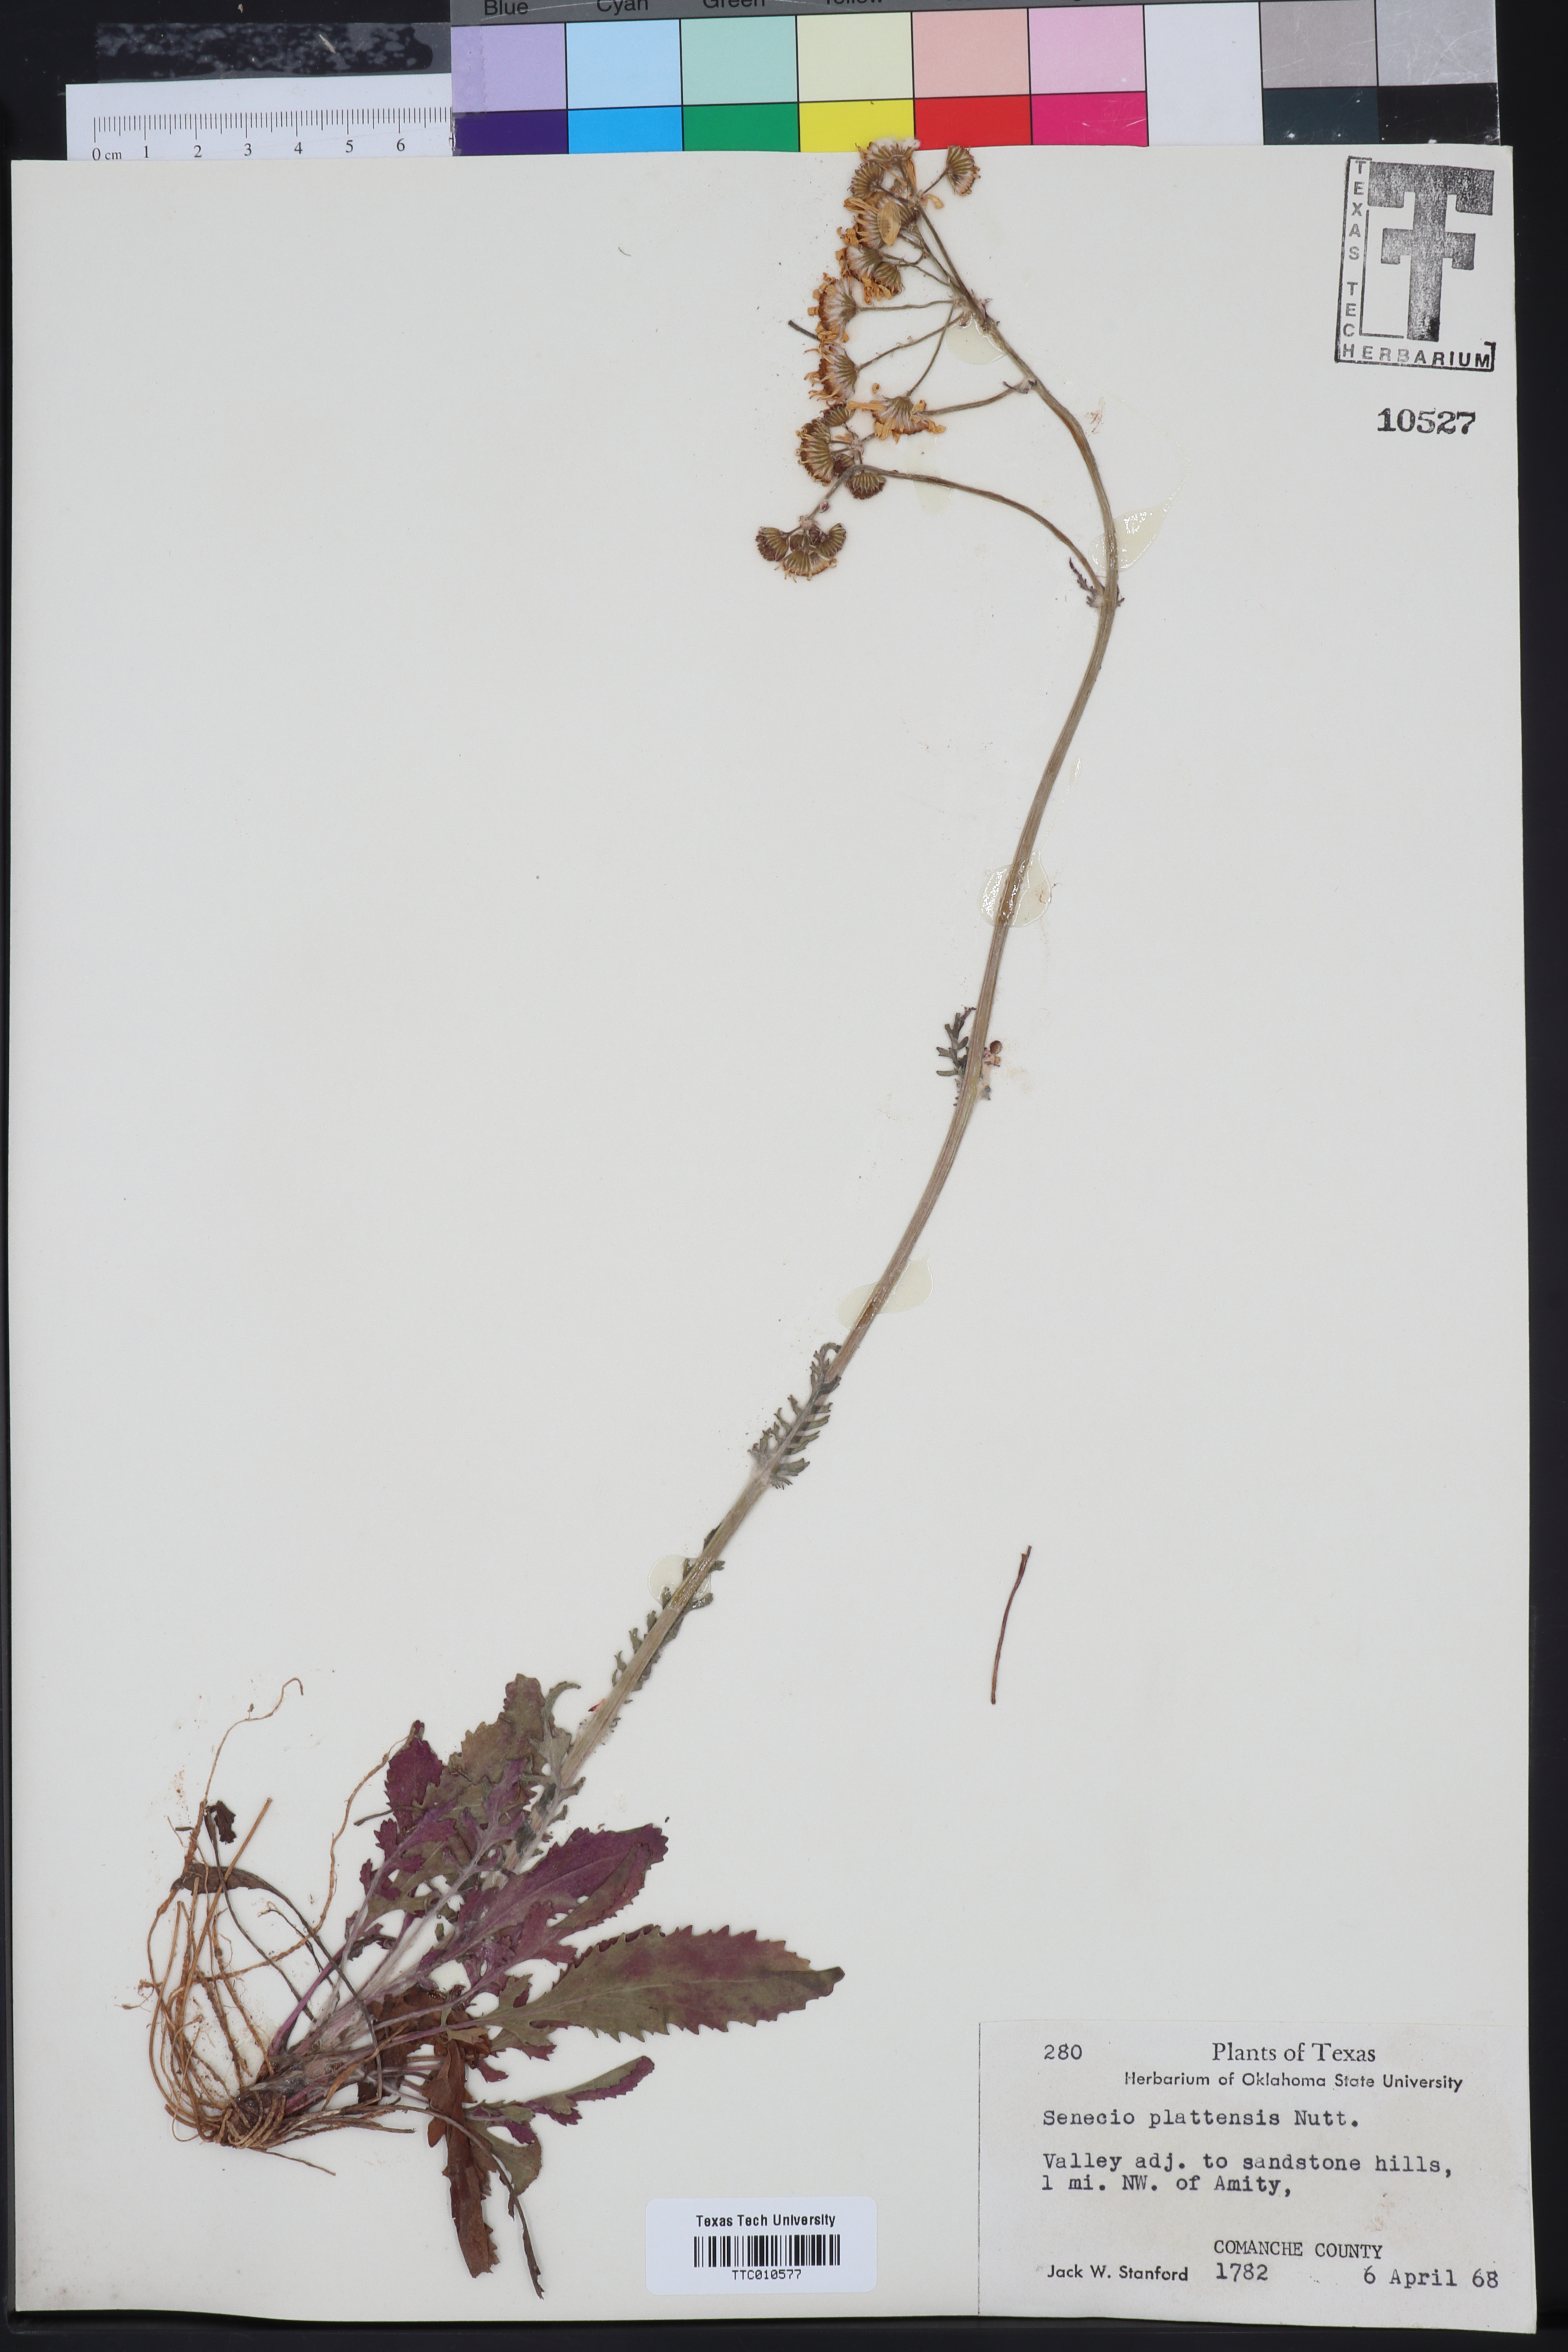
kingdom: Plantae
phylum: Tracheophyta
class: Magnoliopsida
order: Asterales
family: Asteraceae
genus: Packera
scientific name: Packera plattensis
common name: Prairie groundsel
